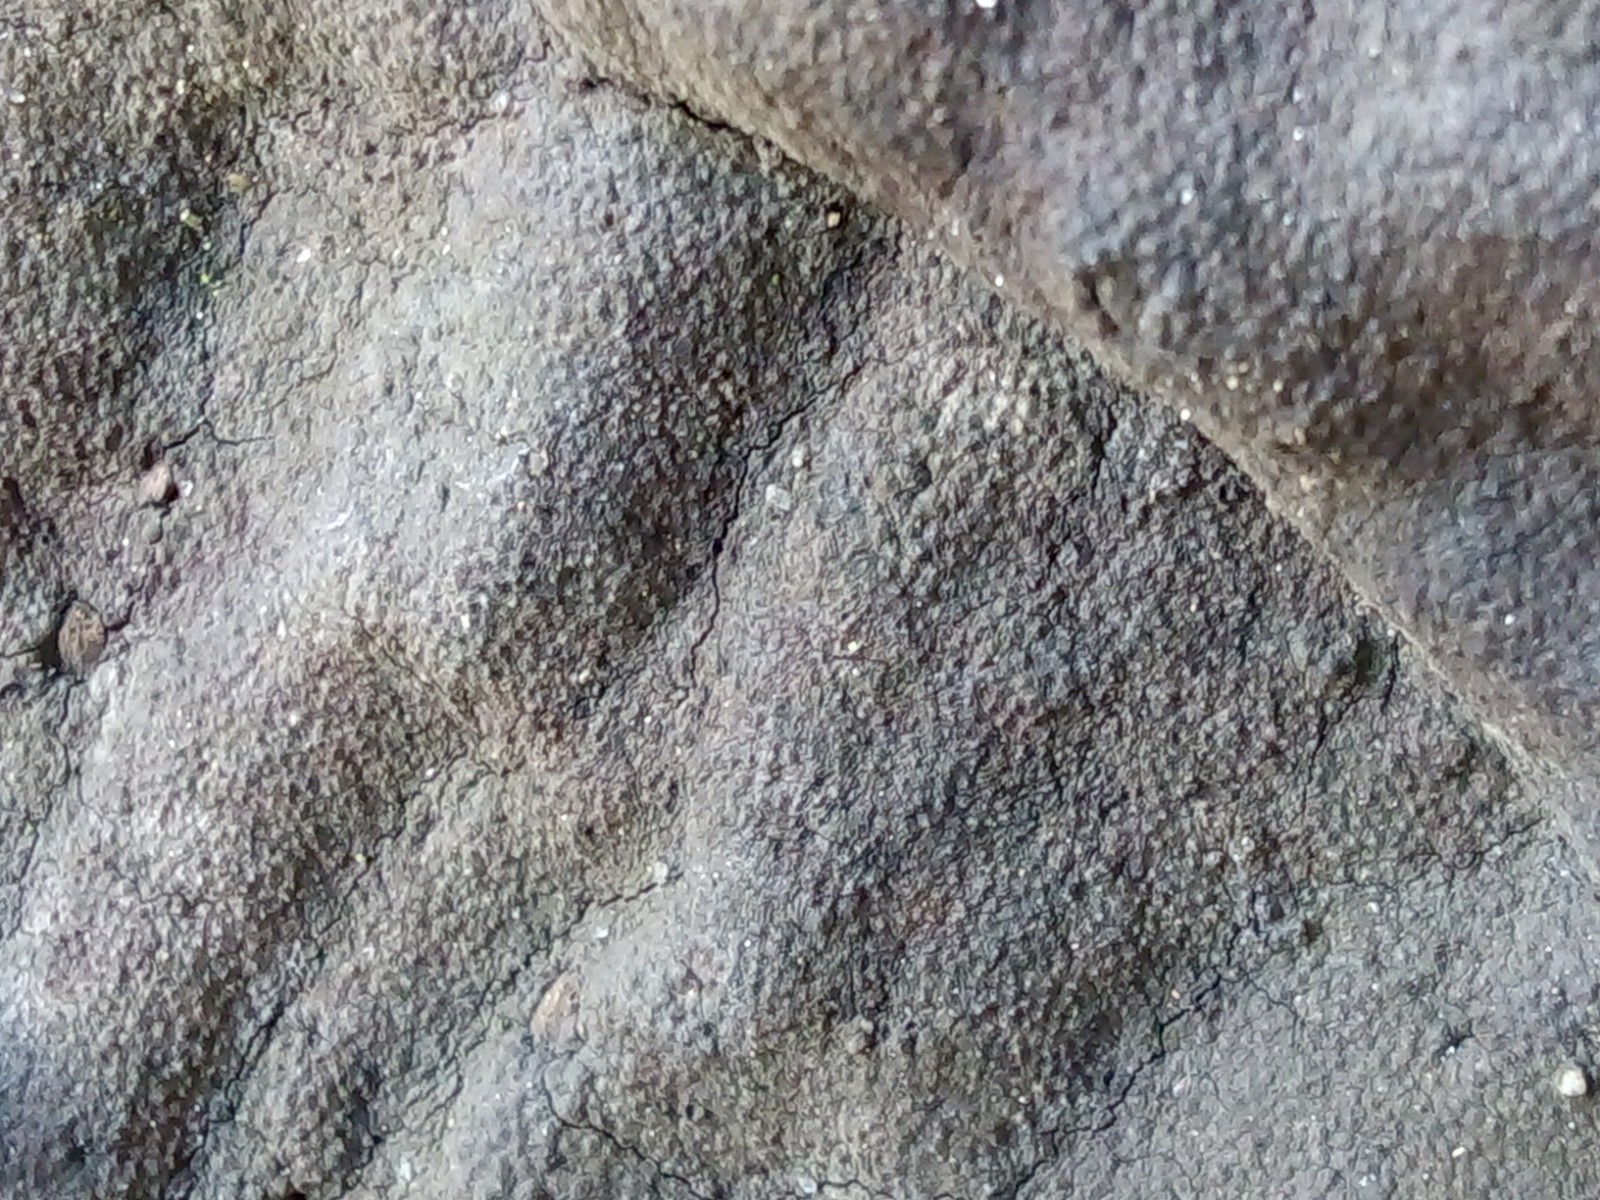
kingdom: Fungi
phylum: Ascomycota
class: Sordariomycetes
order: Xylariales
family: Hypoxylaceae
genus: Hypoxylon
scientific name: Hypoxylon macrocarpum
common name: skorpe-kulbær
